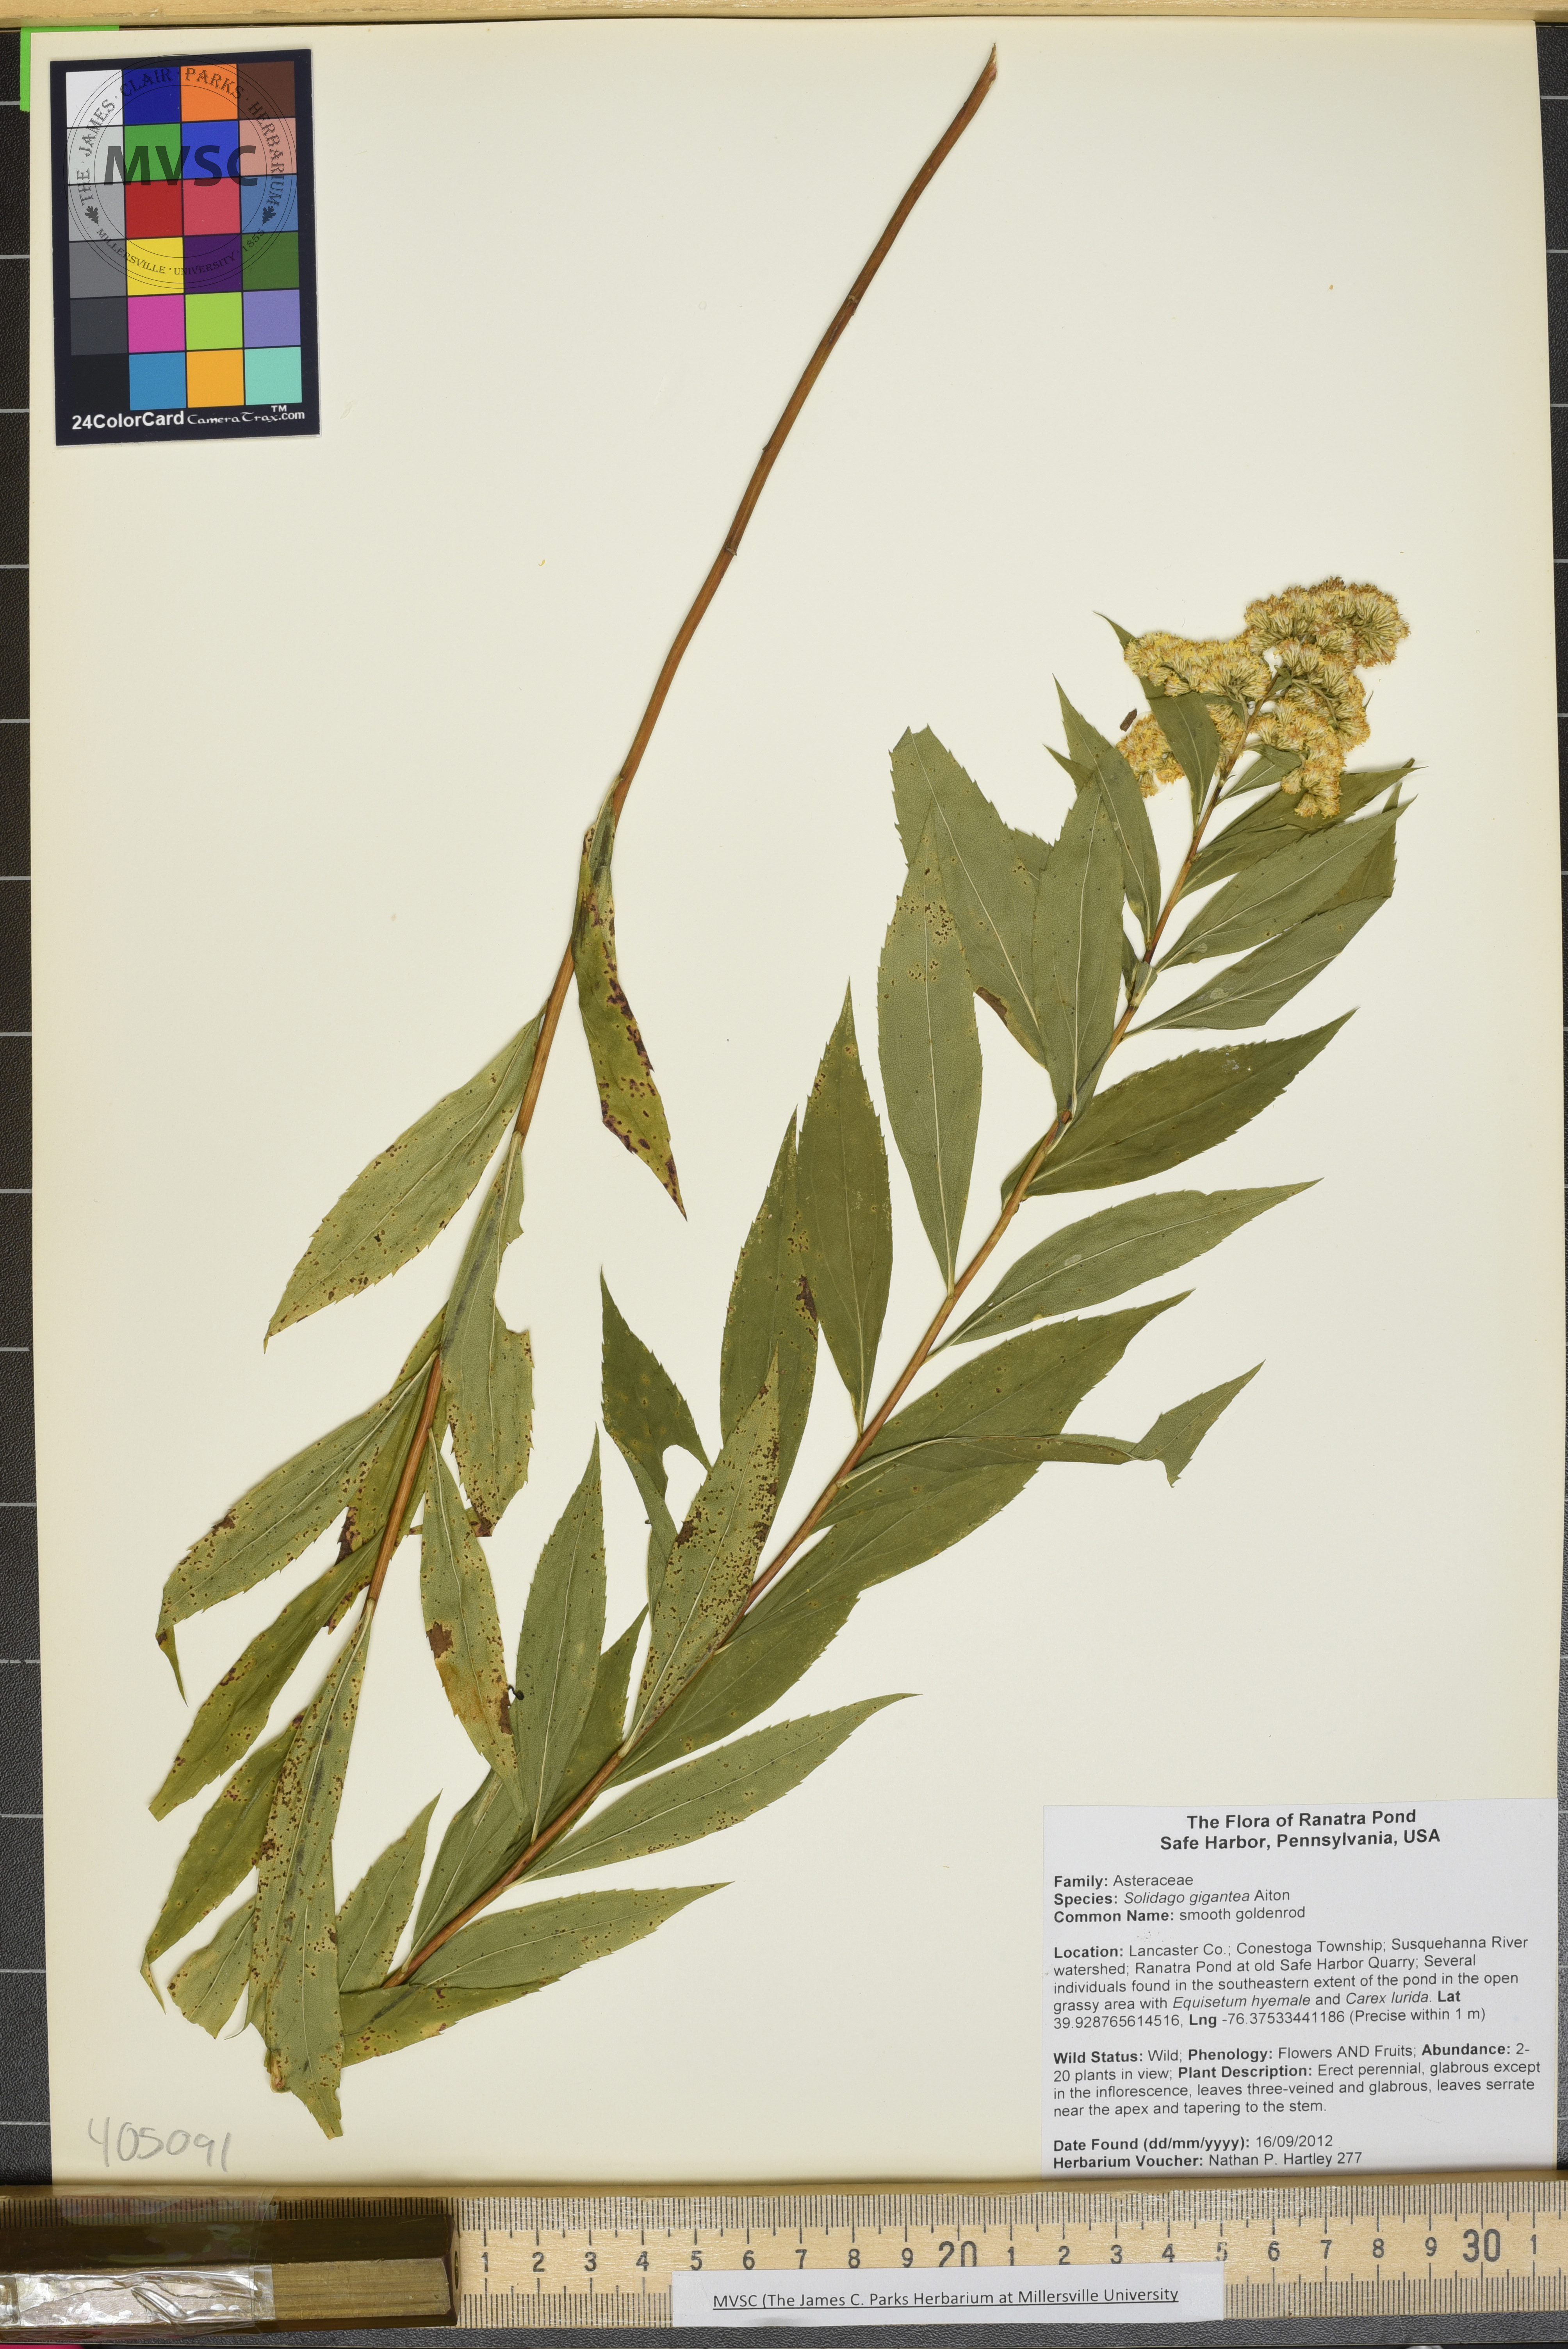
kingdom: Plantae
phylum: Tracheophyta
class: Magnoliopsida
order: Asterales
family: Asteraceae
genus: Solidago
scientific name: Solidago gigantea
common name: smooth goldenrod
